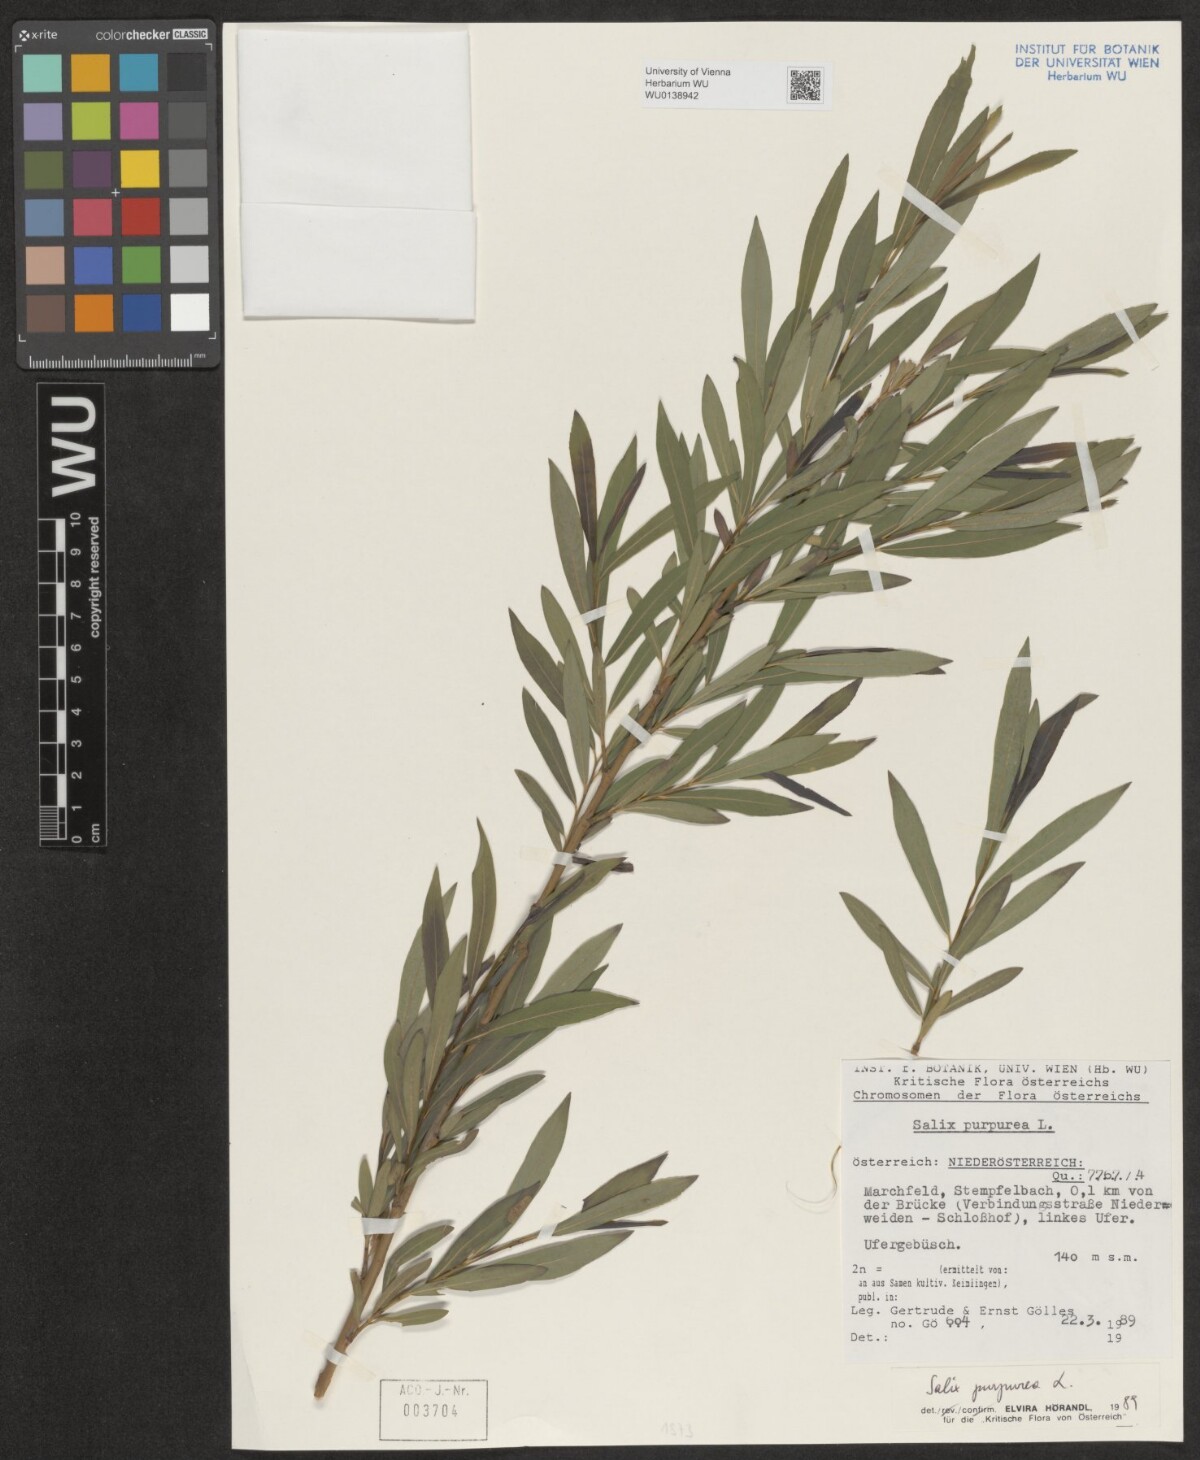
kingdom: Plantae
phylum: Tracheophyta
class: Magnoliopsida
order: Malpighiales
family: Salicaceae
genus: Salix
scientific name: Salix purpurea
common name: Purple willow
